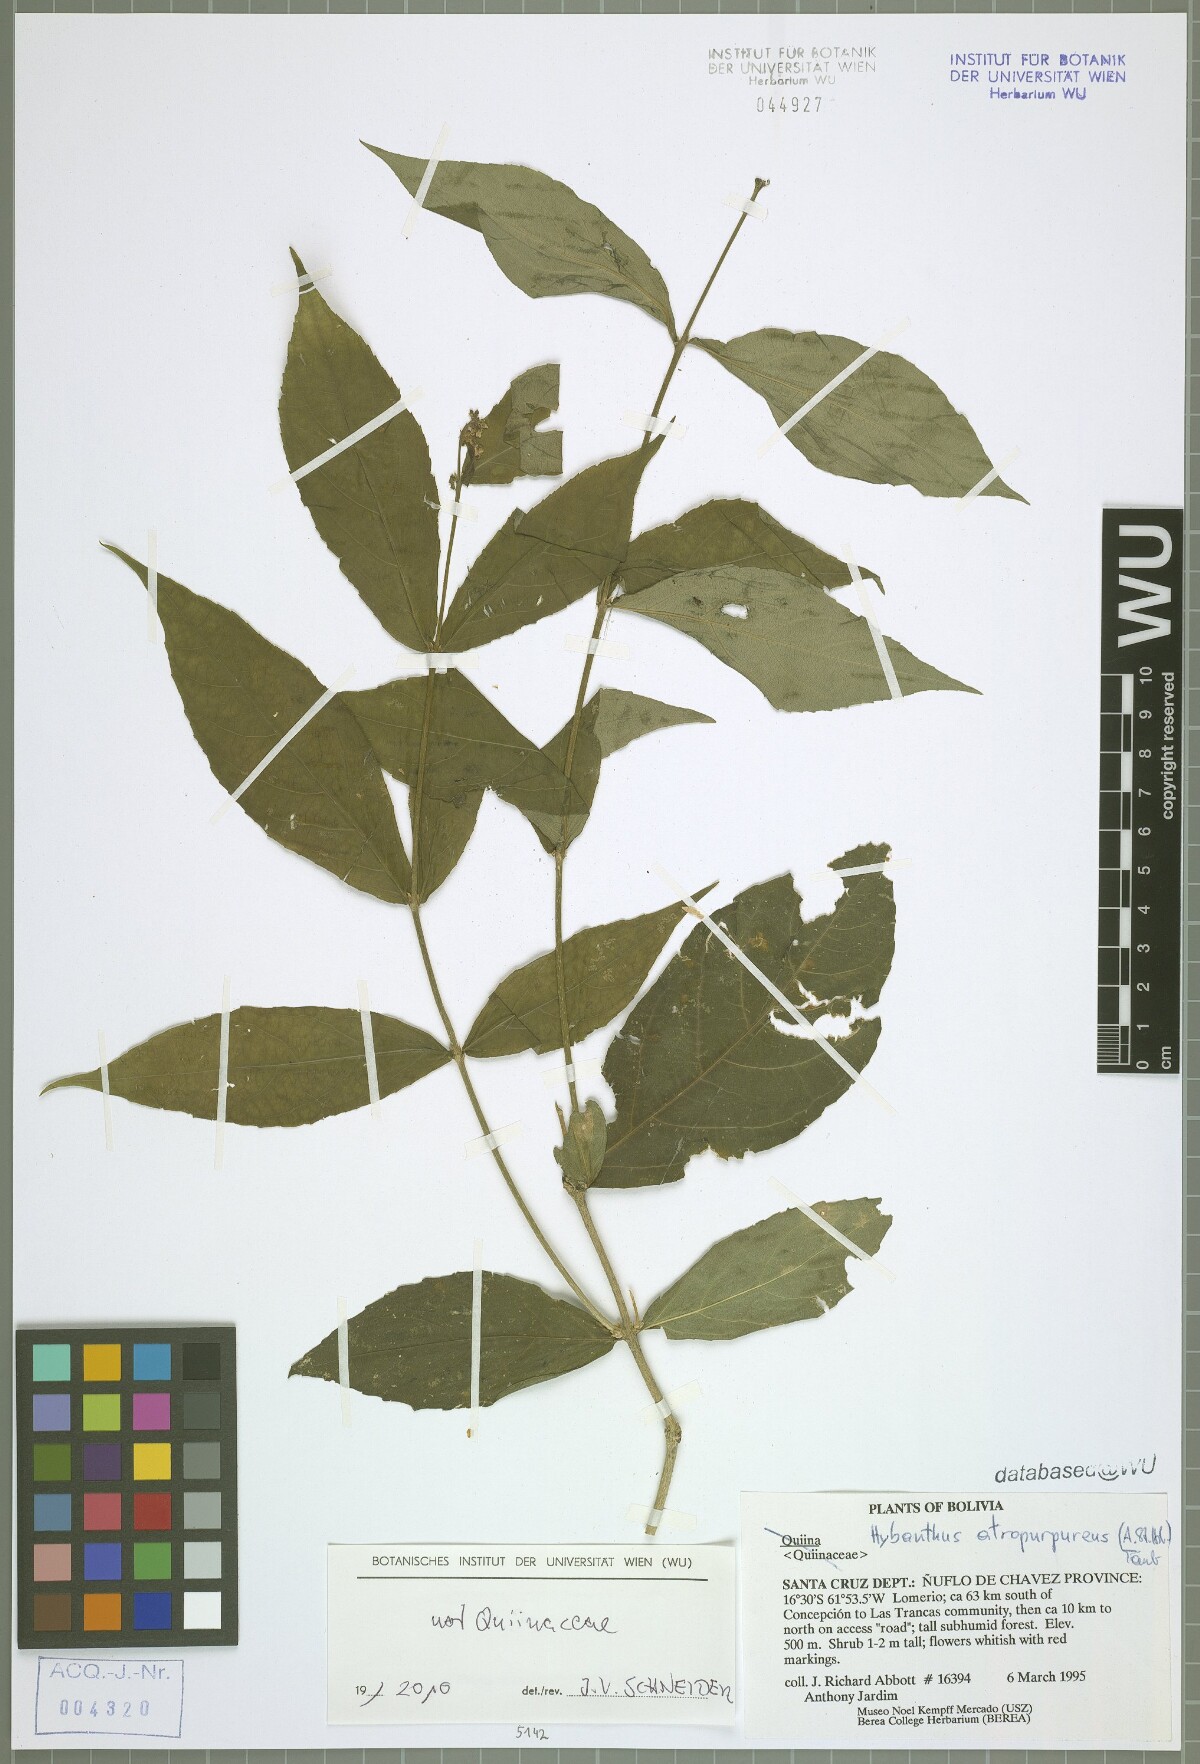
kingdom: Plantae
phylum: Tracheophyta
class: Magnoliopsida
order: Malpighiales
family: Violaceae
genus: Pombalia
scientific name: Pombalia atropurpurea
